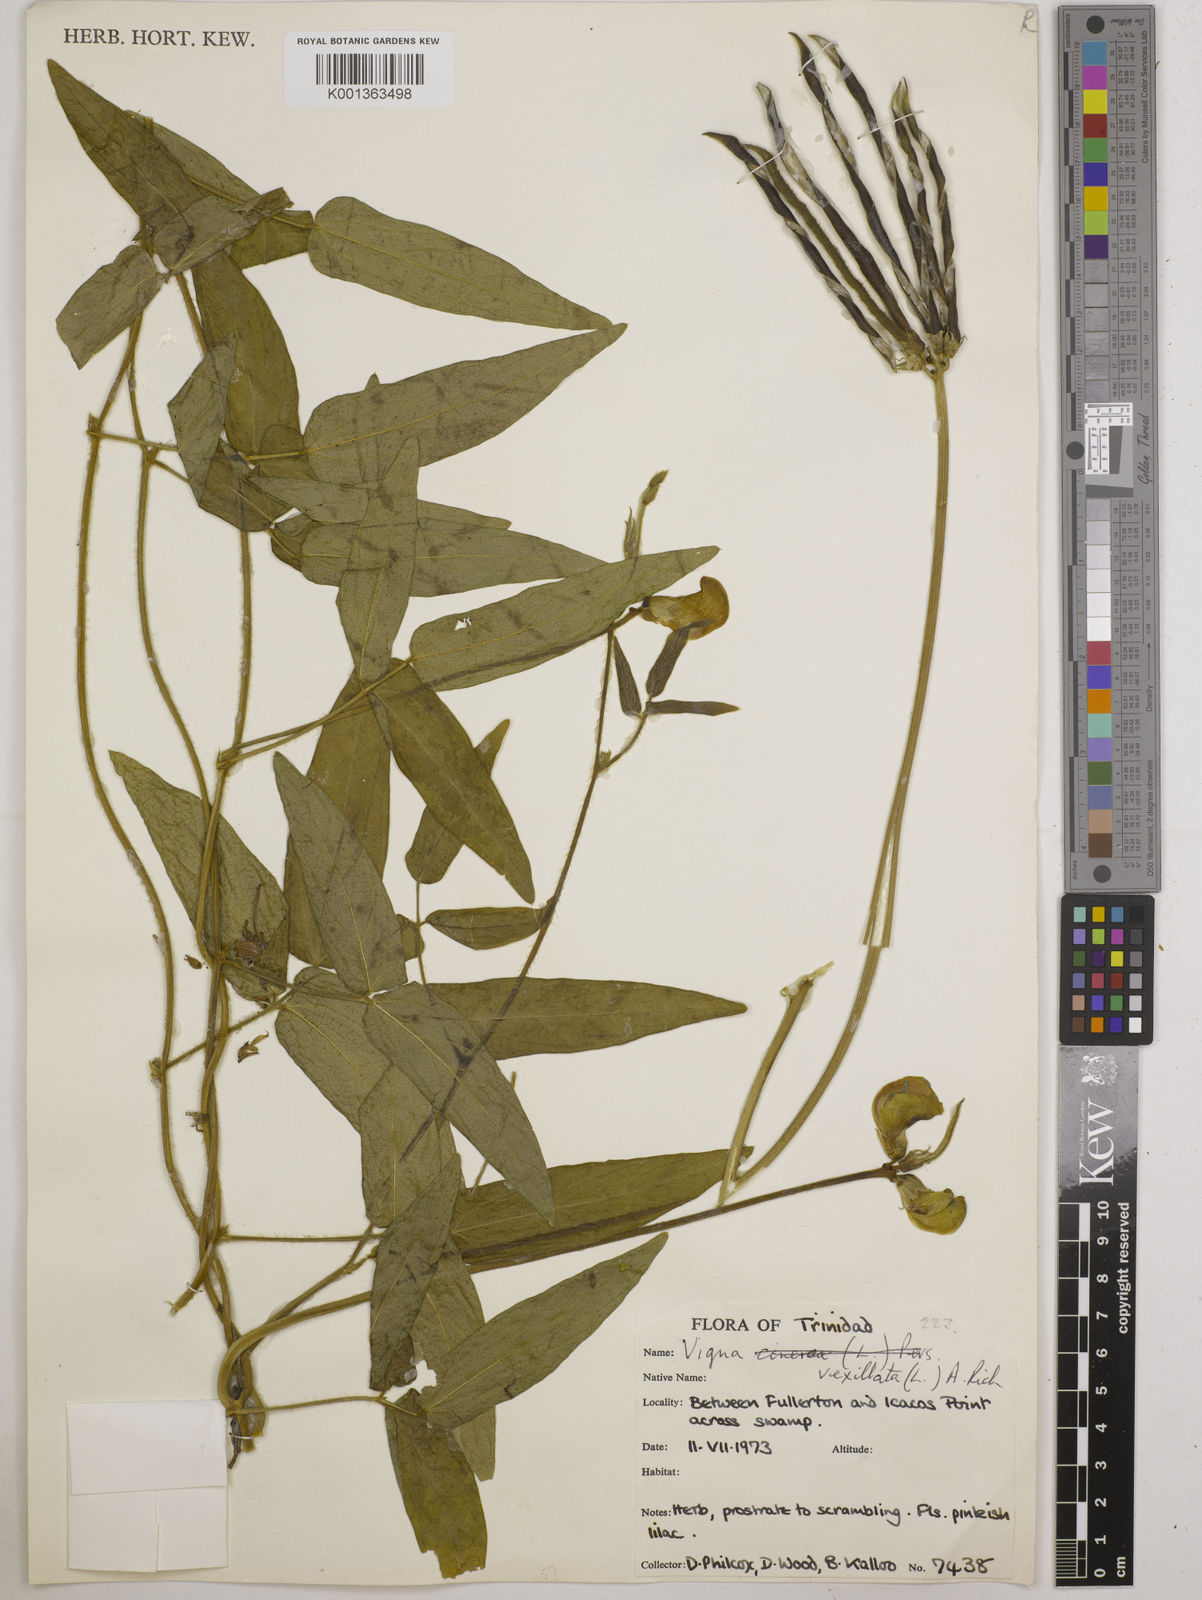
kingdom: Plantae
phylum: Tracheophyta
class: Magnoliopsida
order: Fabales
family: Fabaceae
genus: Vigna
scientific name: Vigna vexillata
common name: Zombi pea
